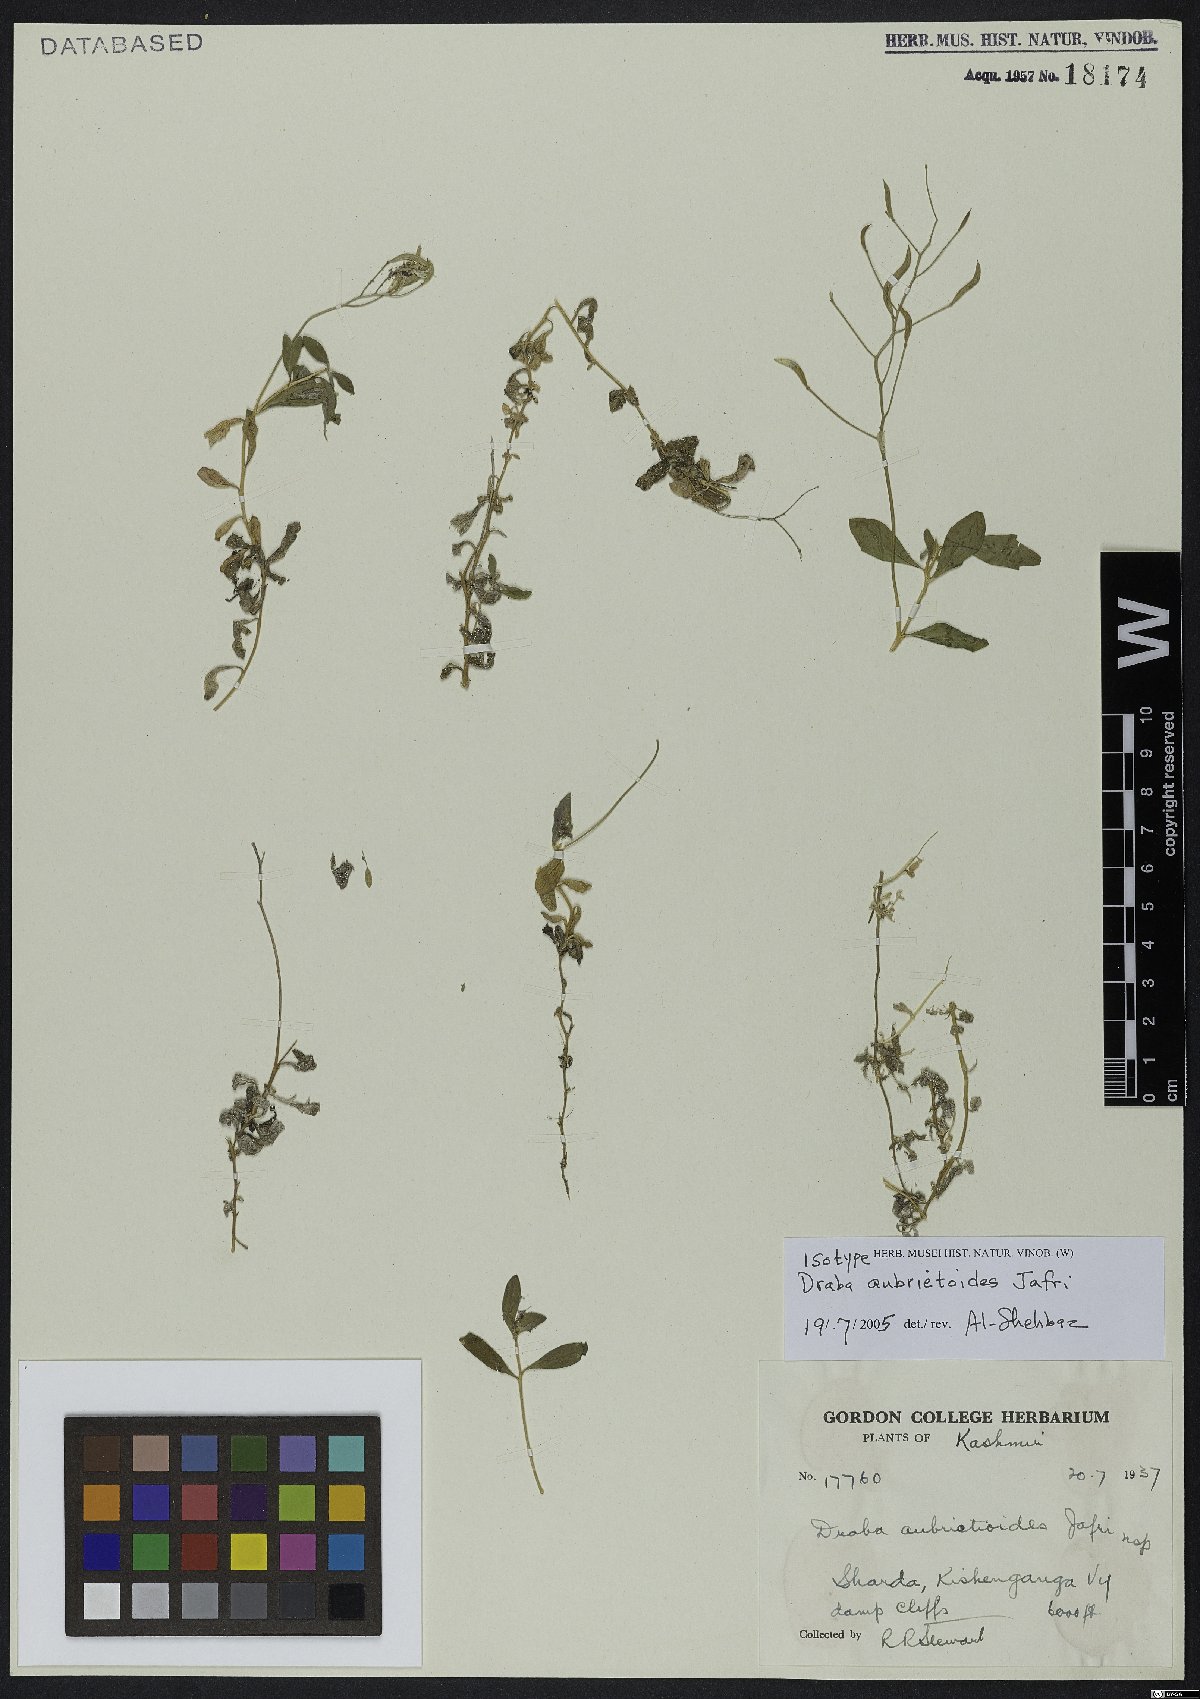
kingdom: Plantae
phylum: Tracheophyta
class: Magnoliopsida
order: Brassicales
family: Brassicaceae
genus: Draba
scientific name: Draba aubrietioides
